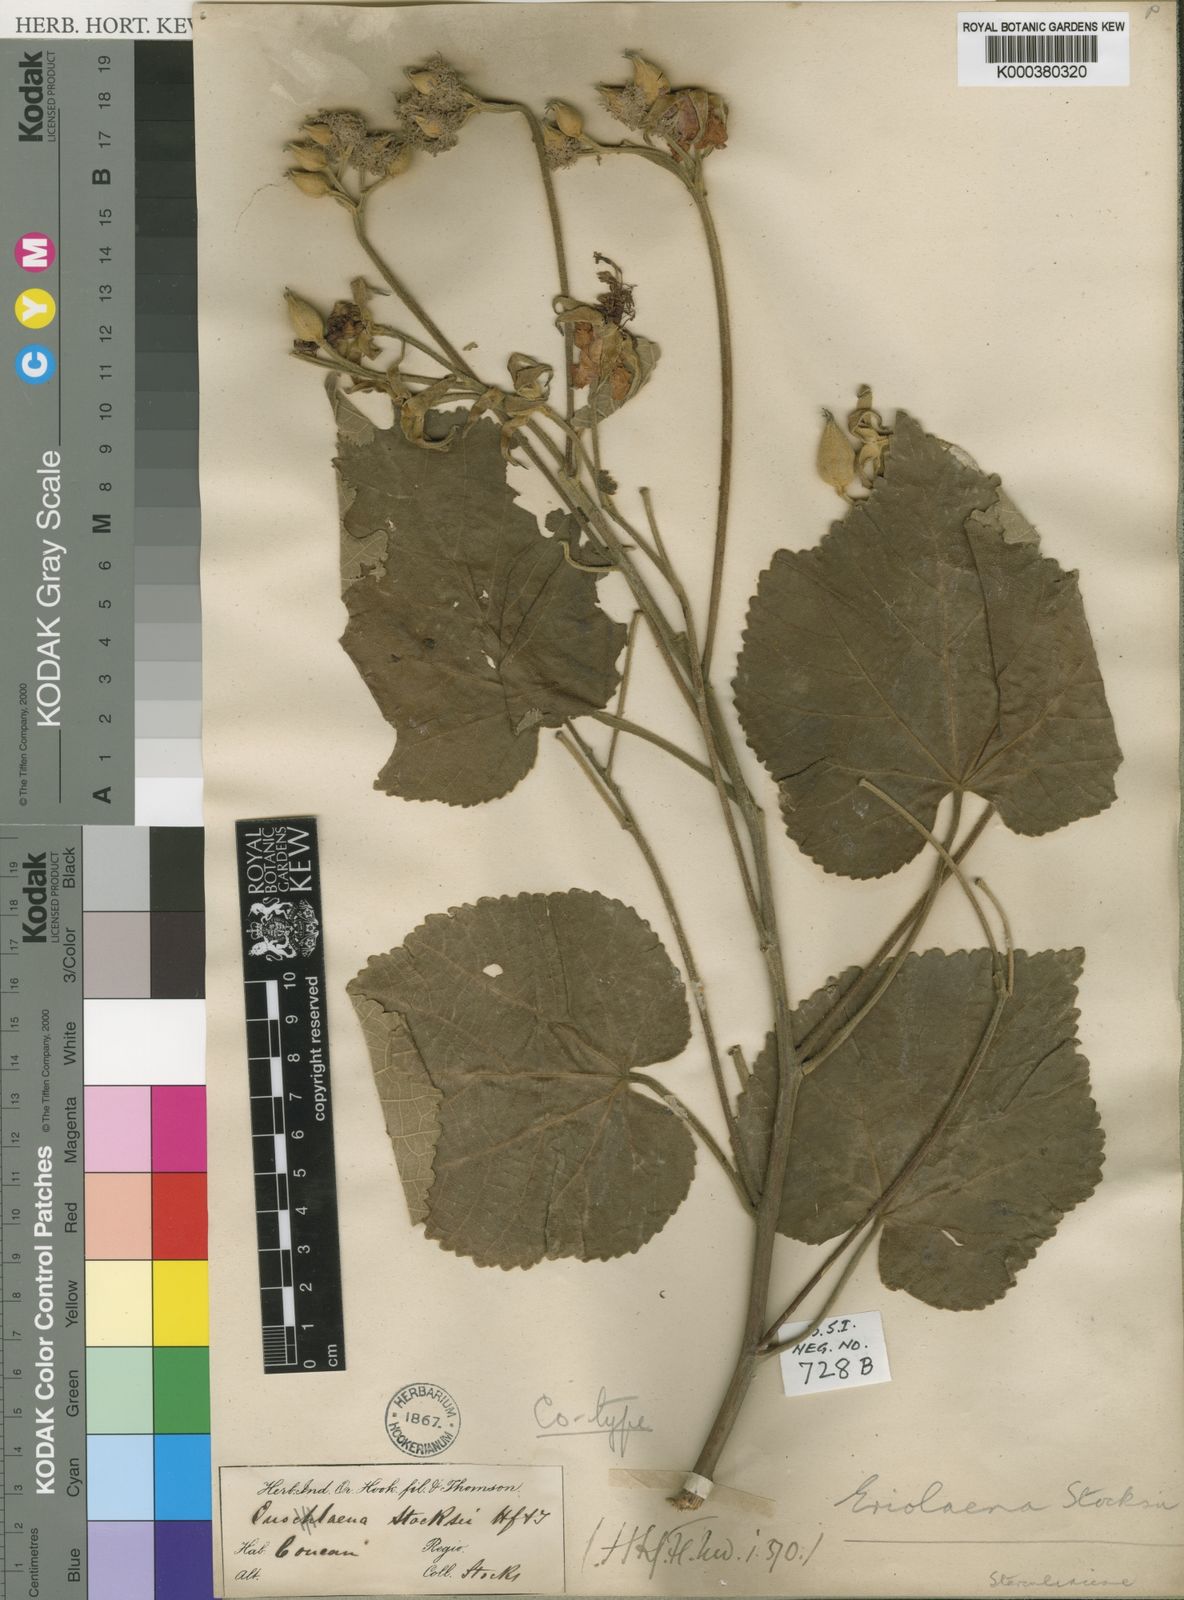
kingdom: Plantae
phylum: Tracheophyta
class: Magnoliopsida
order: Malvales
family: Malvaceae
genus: Eriolaena
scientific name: Eriolaena stocksii
